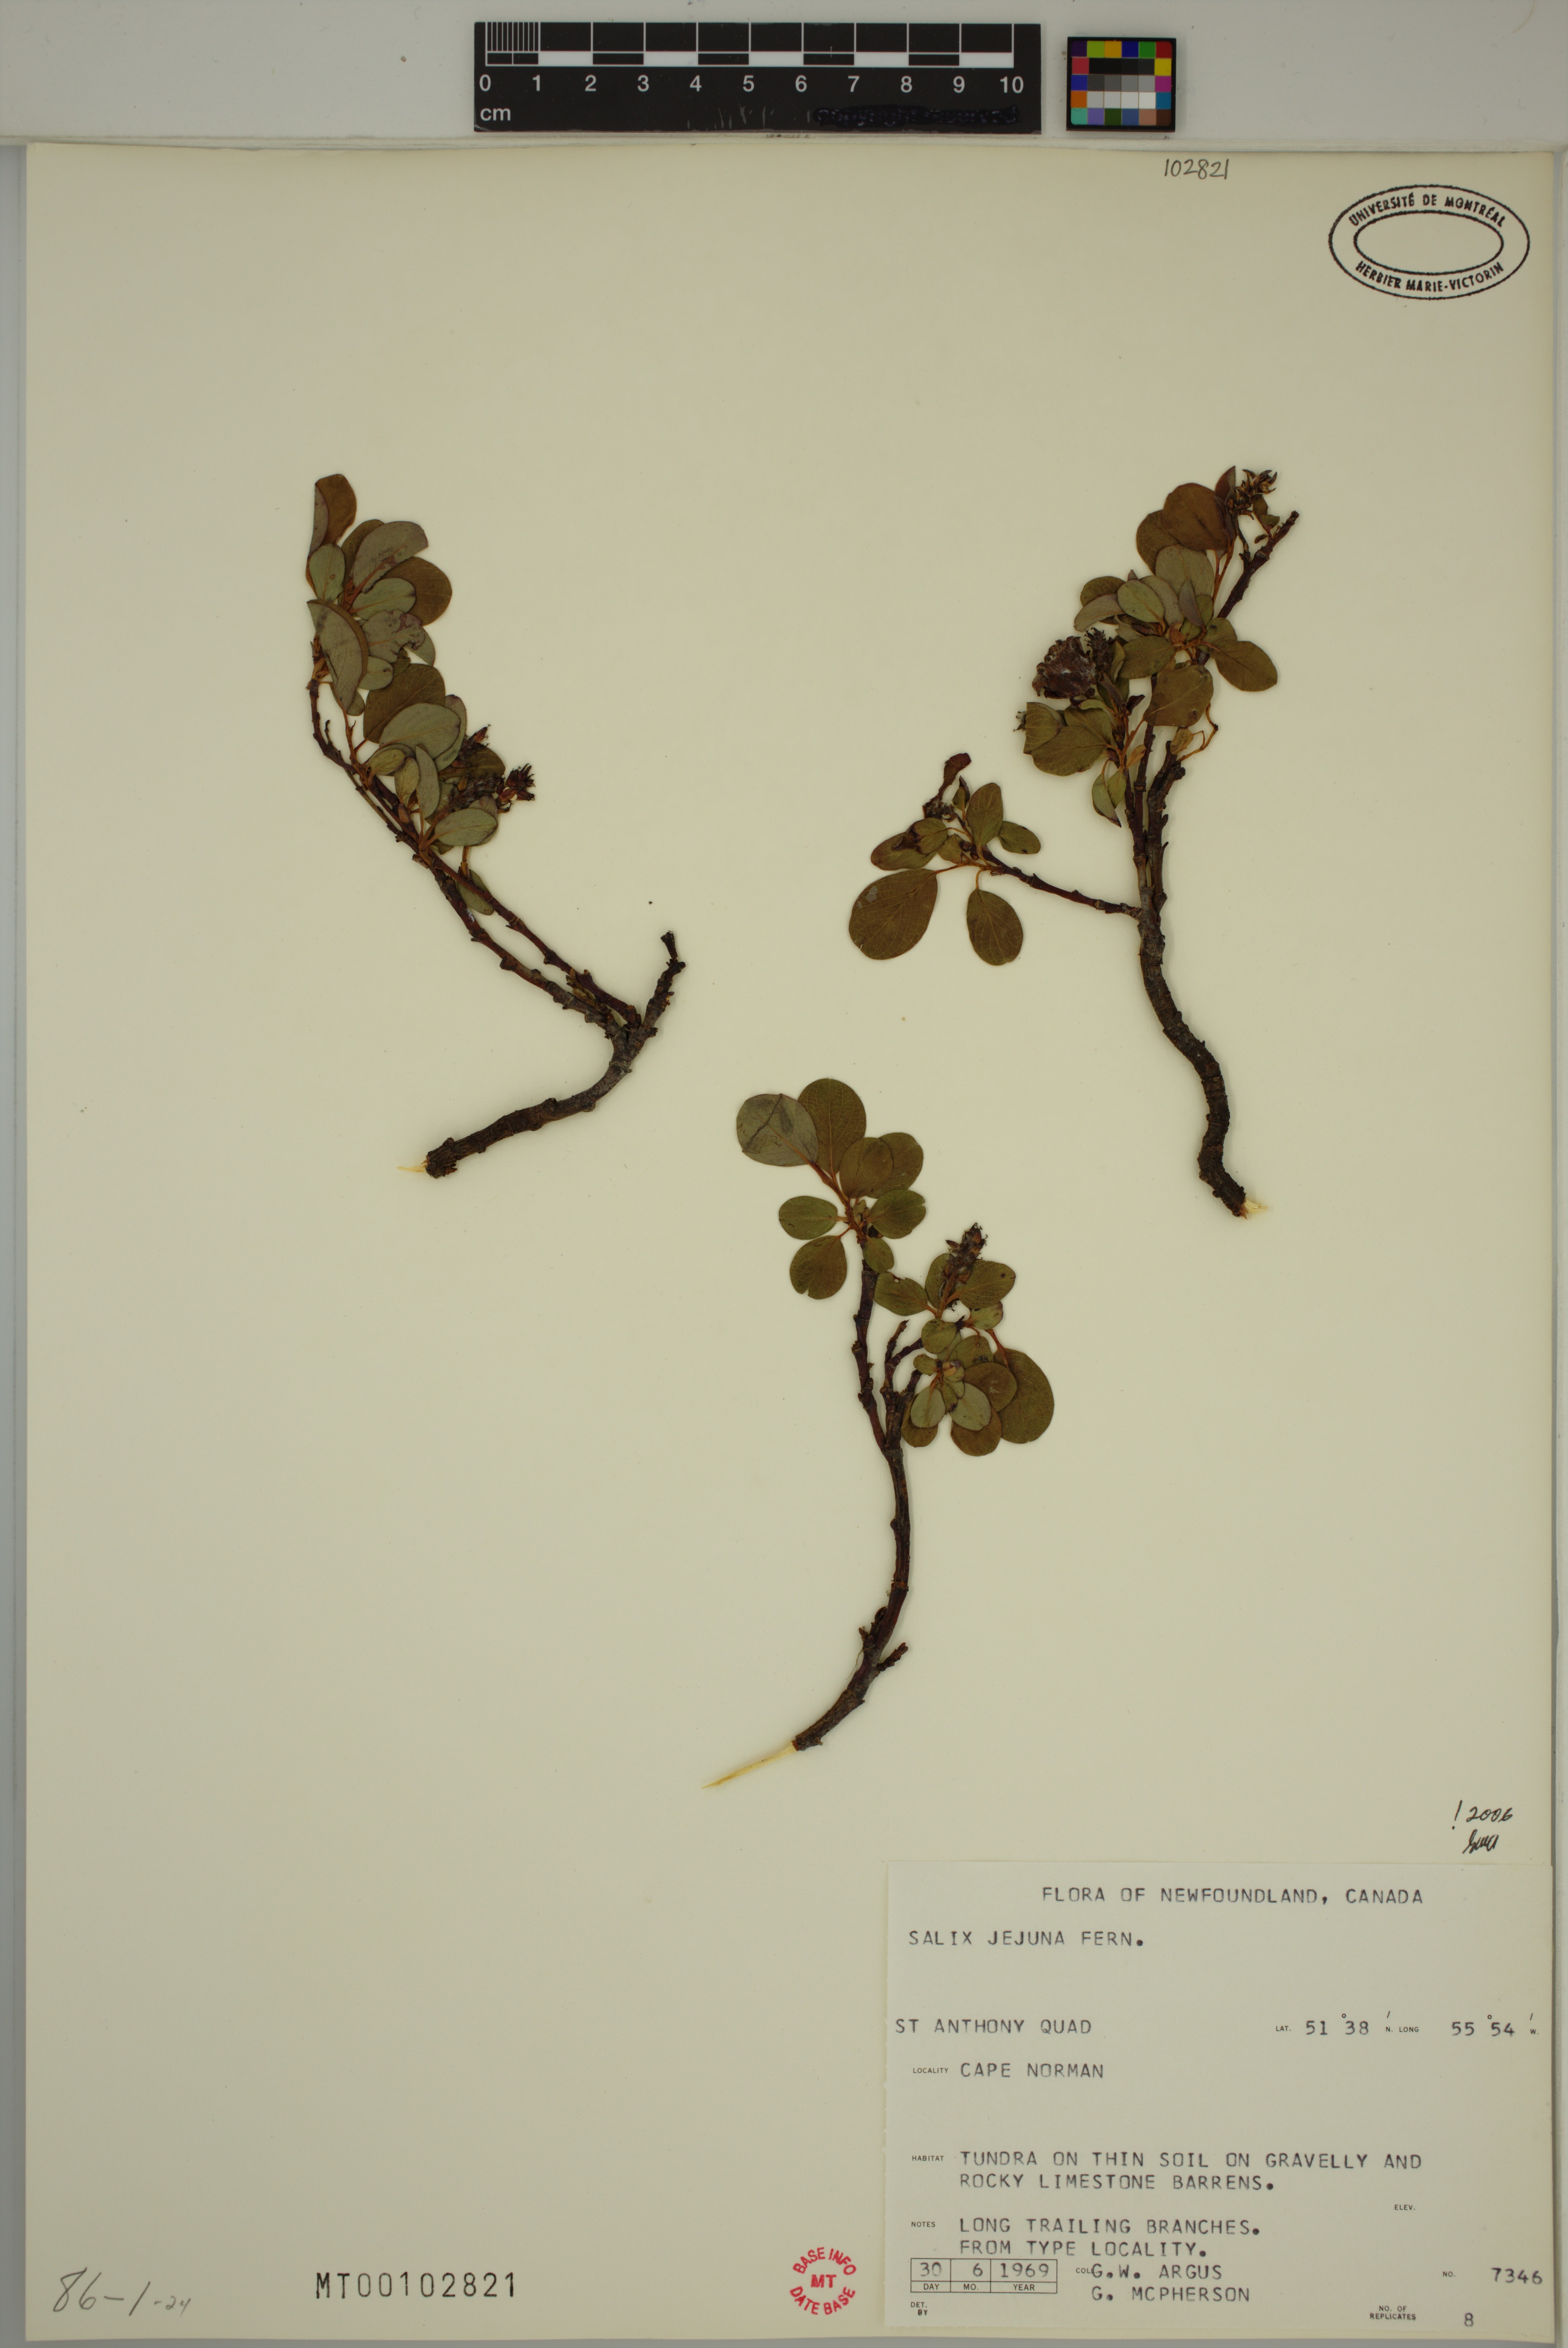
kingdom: Plantae
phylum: Tracheophyta
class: Magnoliopsida
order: Malpighiales
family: Salicaceae
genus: Salix
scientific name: Salix jejuna
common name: Belle isle dwarf willow
